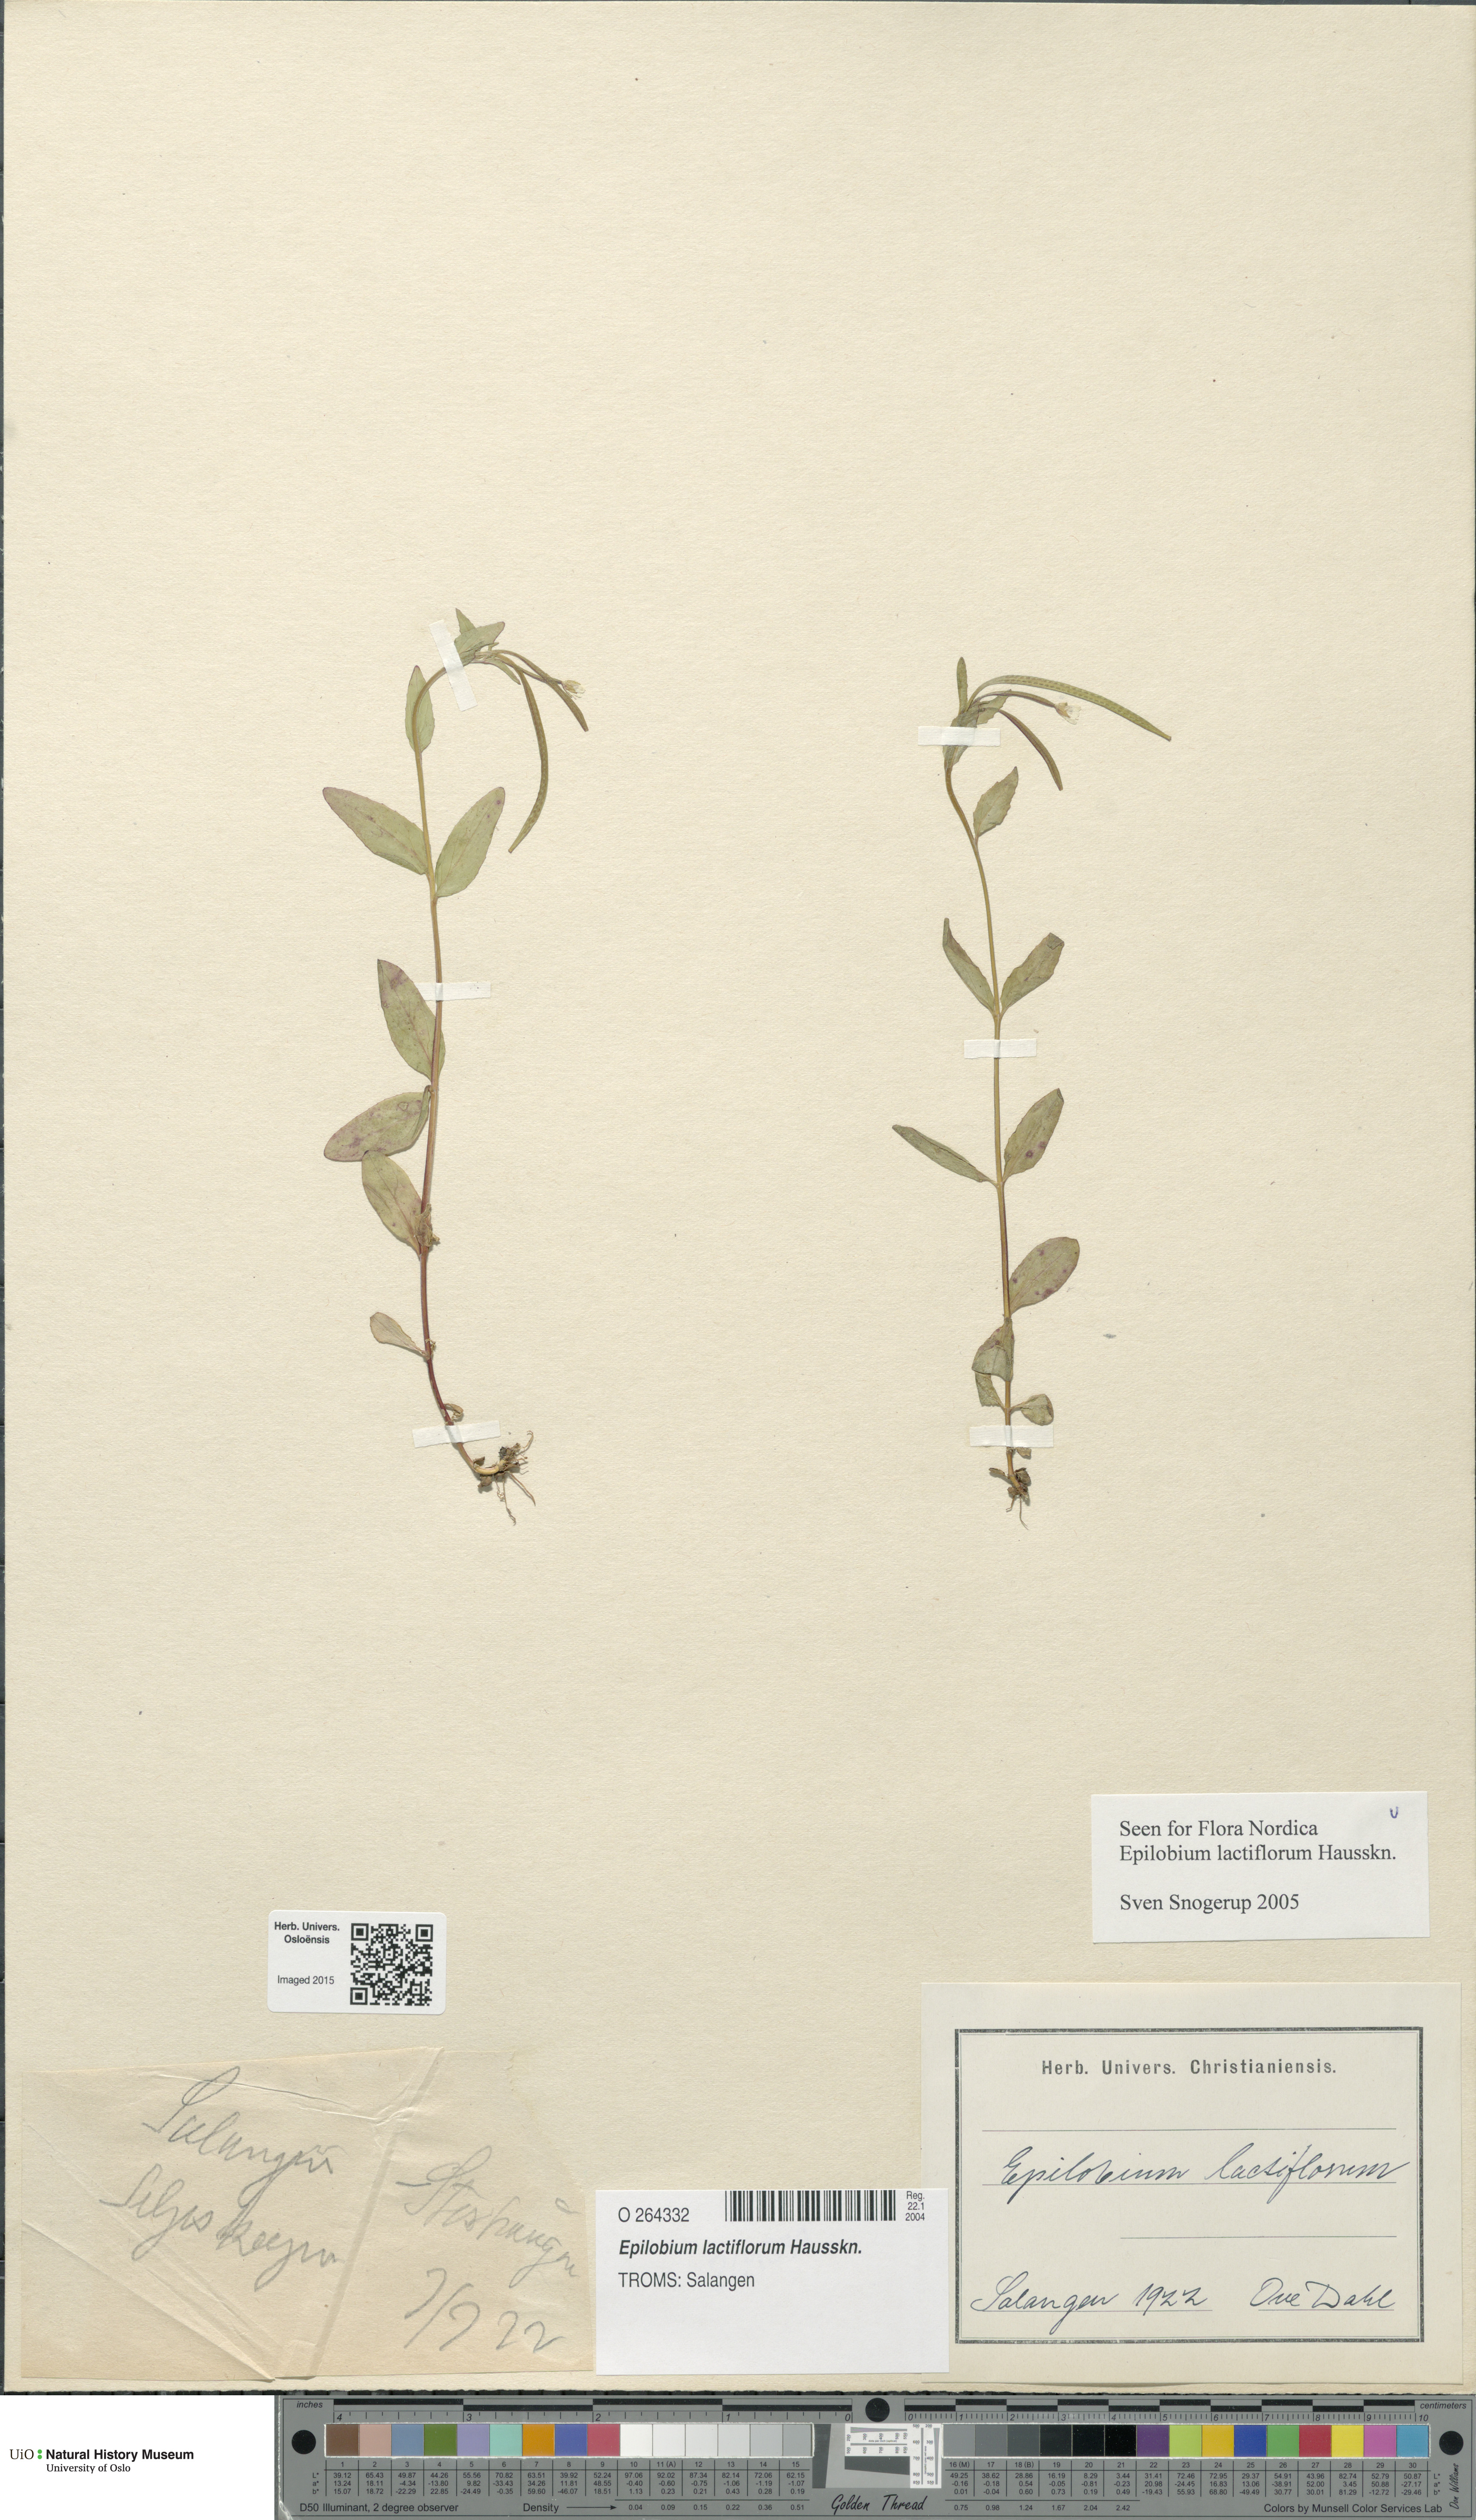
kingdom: Plantae
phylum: Tracheophyta
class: Magnoliopsida
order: Myrtales
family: Onagraceae
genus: Epilobium
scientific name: Epilobium lactiflorum
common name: Milkflower willowherb
